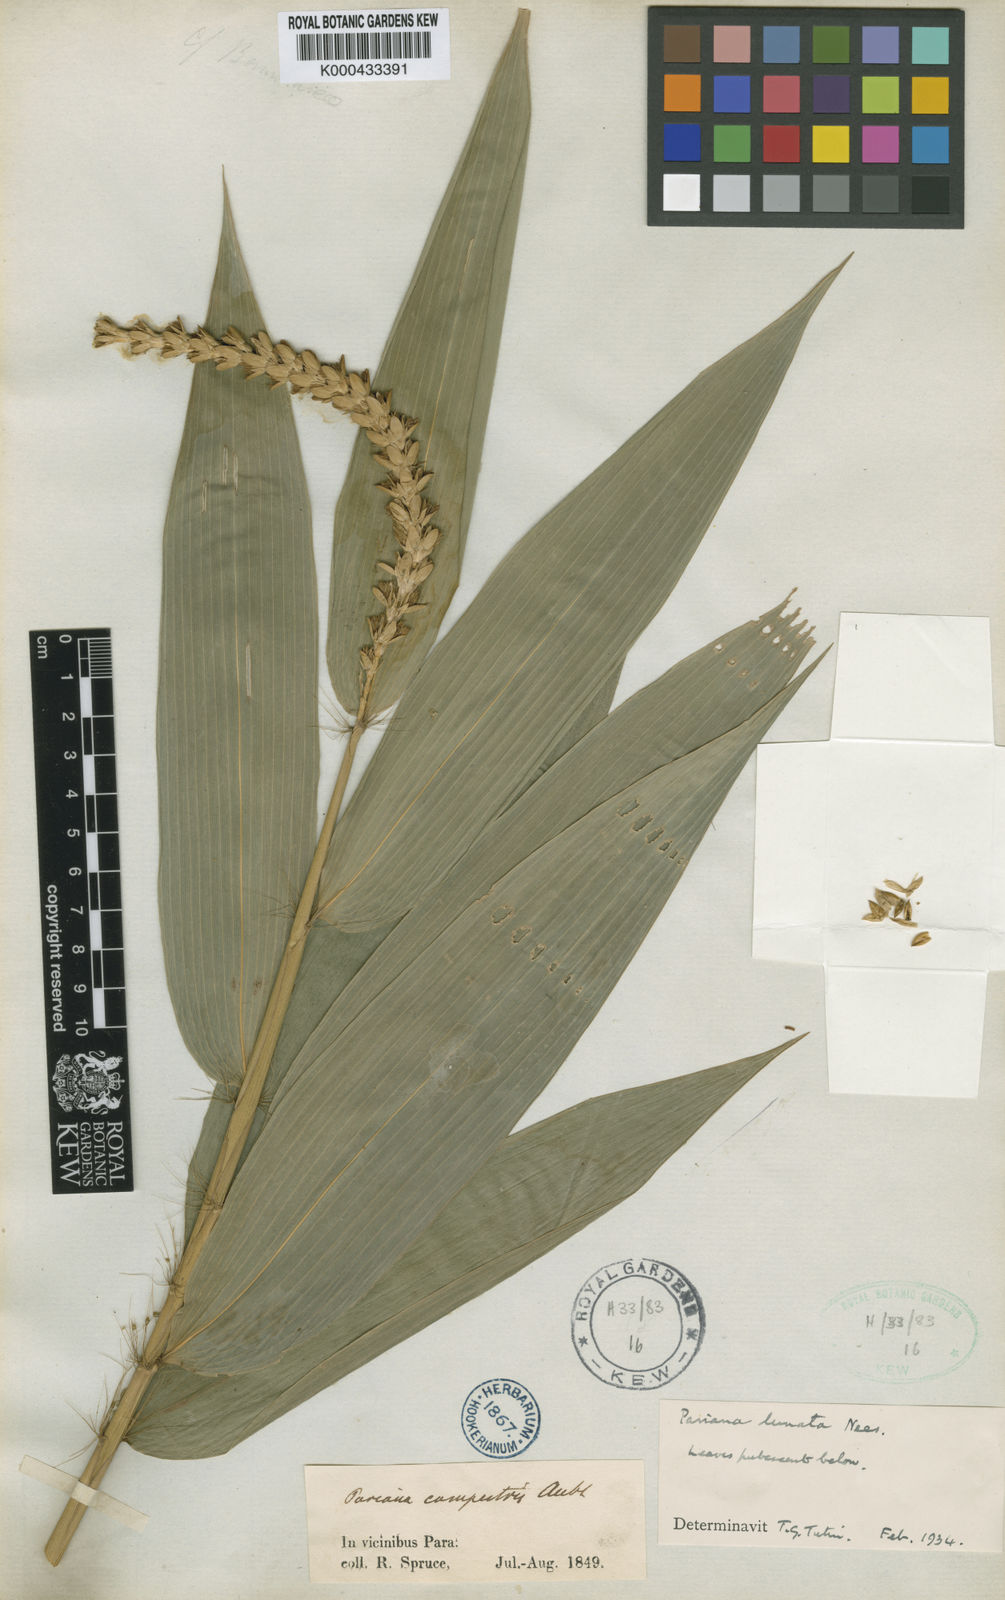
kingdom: Plantae
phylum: Tracheophyta
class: Liliopsida
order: Poales
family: Poaceae
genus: Pariana
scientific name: Pariana lunata
